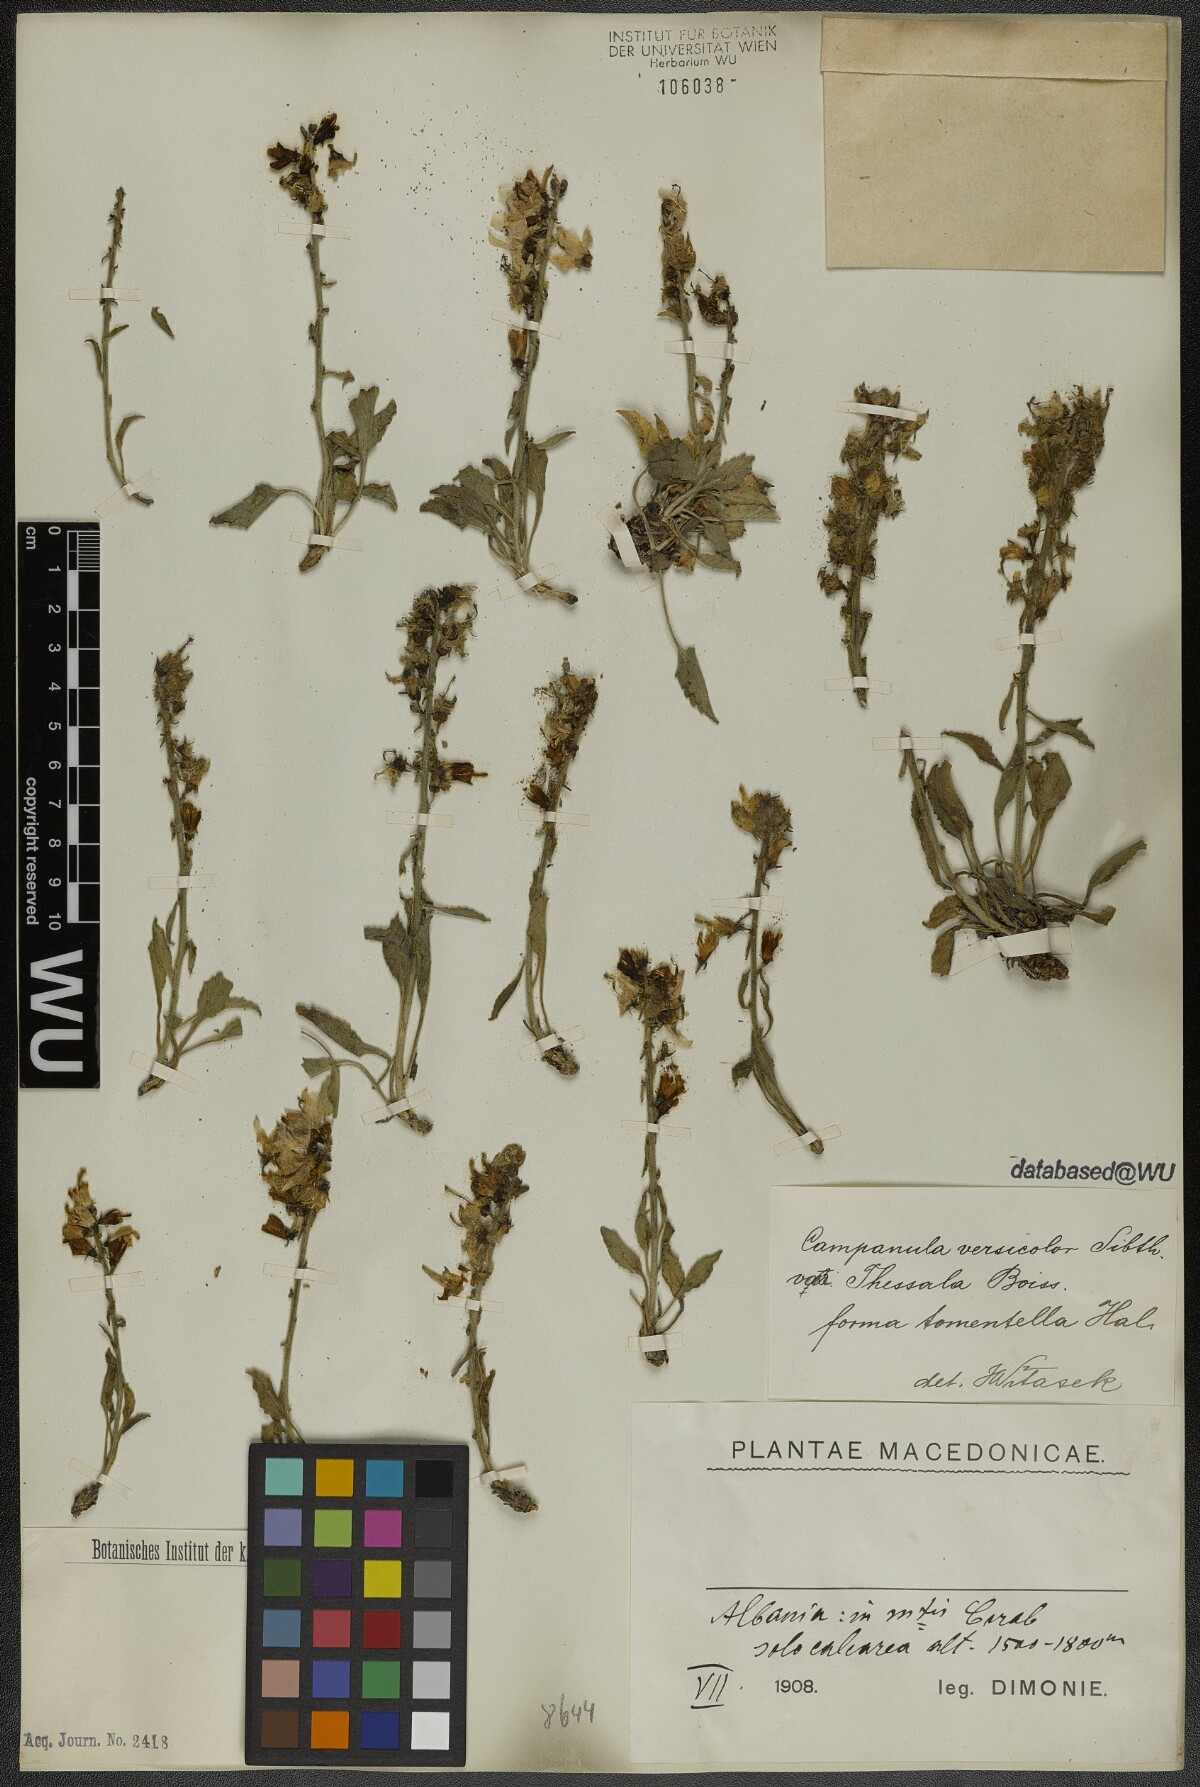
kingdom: Plantae
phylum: Tracheophyta
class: Magnoliopsida
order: Asterales
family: Campanulaceae
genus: Campanula
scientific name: Campanula versicolor
